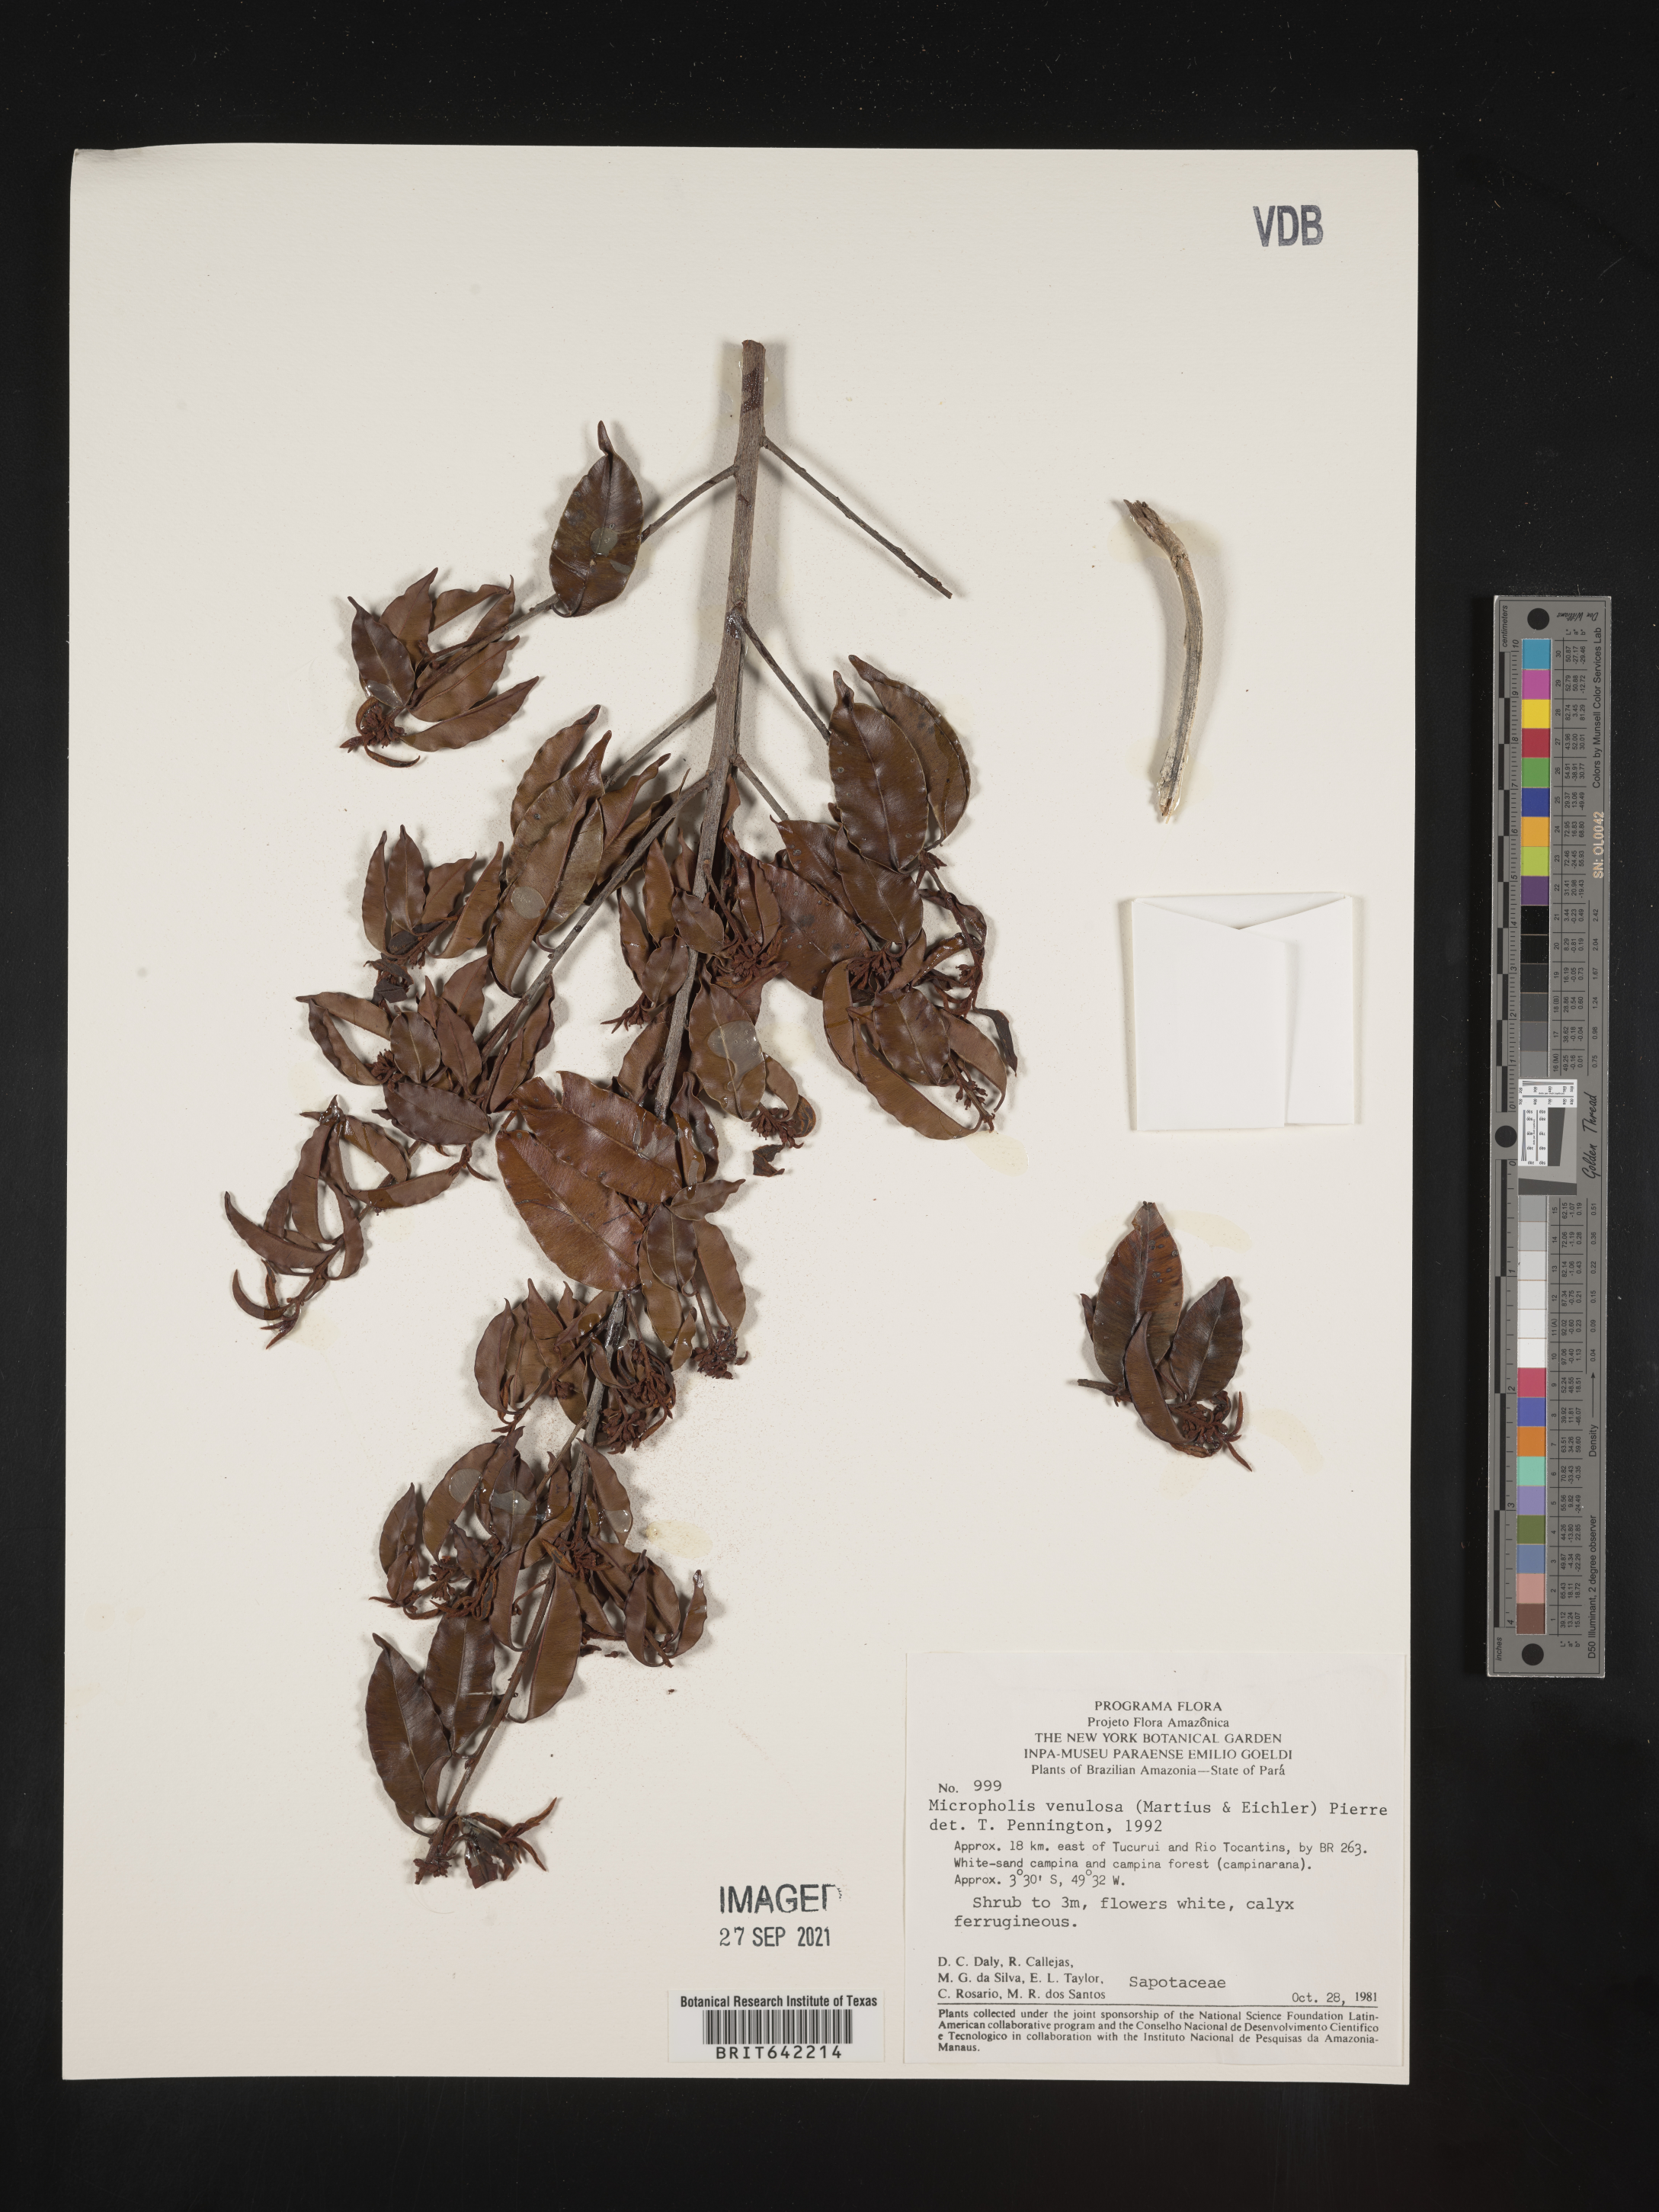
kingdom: Plantae
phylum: Tracheophyta
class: Magnoliopsida
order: Ericales
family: Sapotaceae
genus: Micropholis
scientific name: Micropholis
